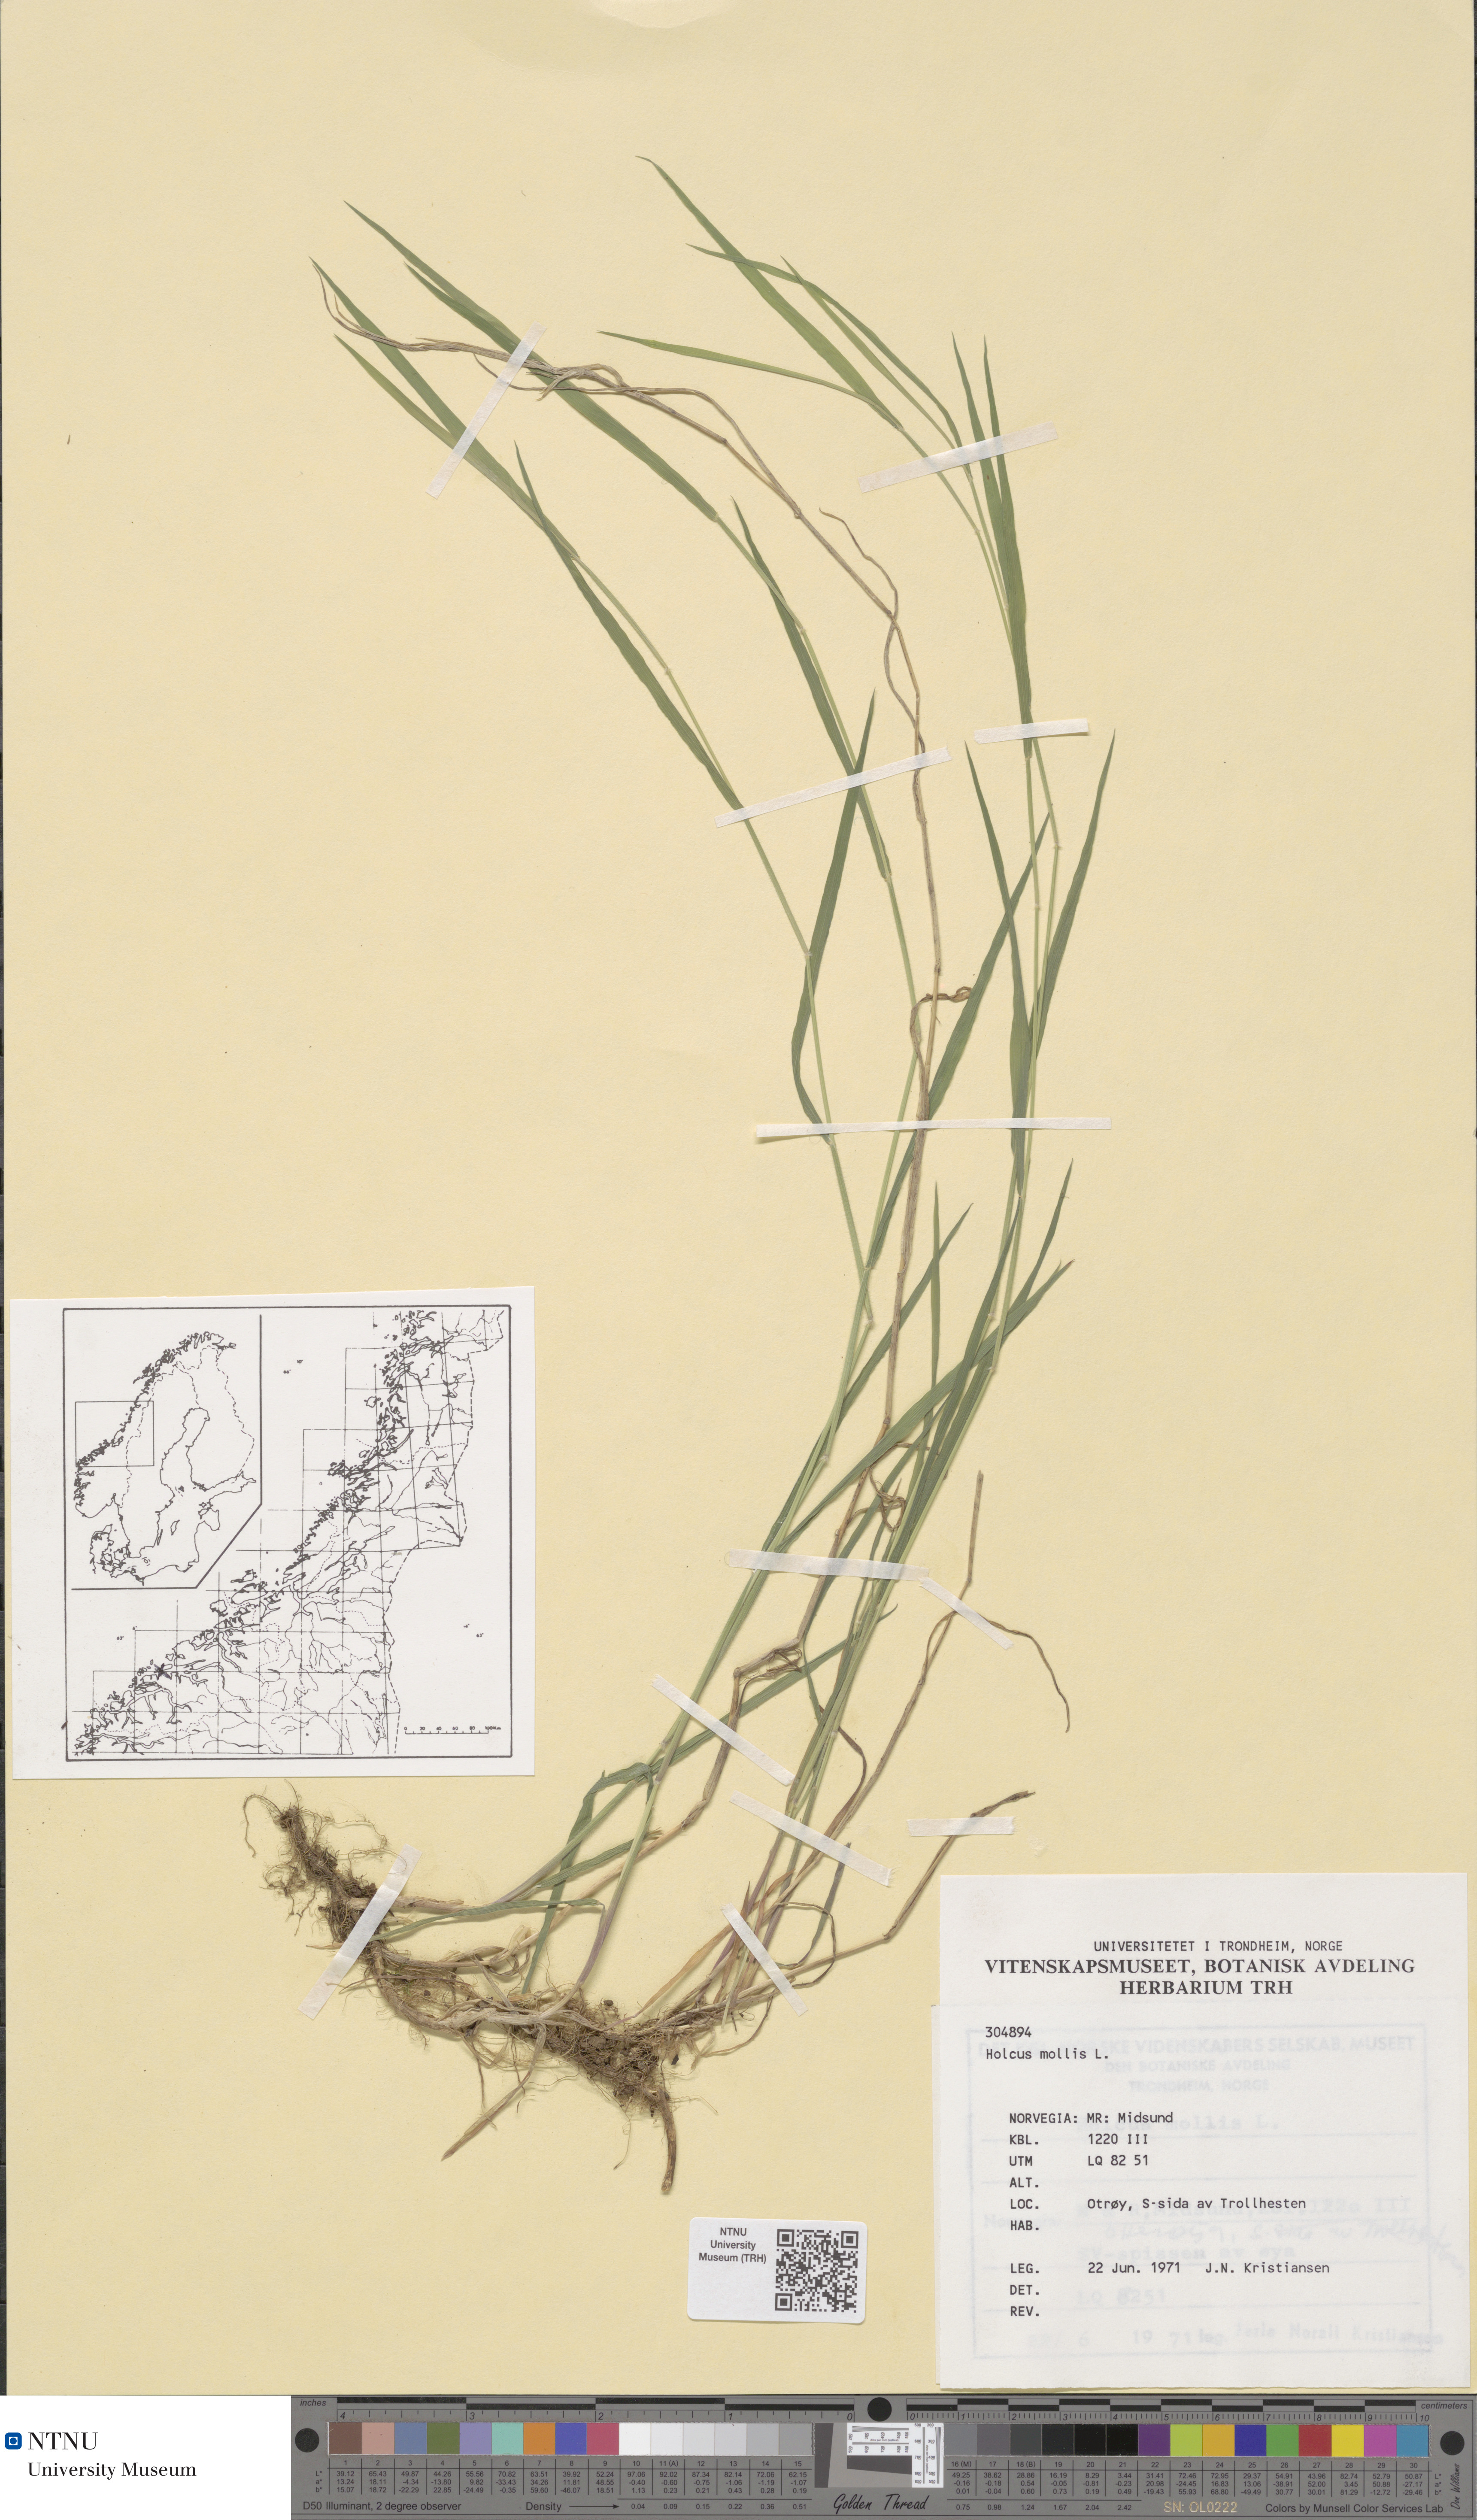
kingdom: Plantae
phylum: Tracheophyta
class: Liliopsida
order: Poales
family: Poaceae
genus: Holcus
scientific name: Holcus mollis
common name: Creeping velvetgrass
